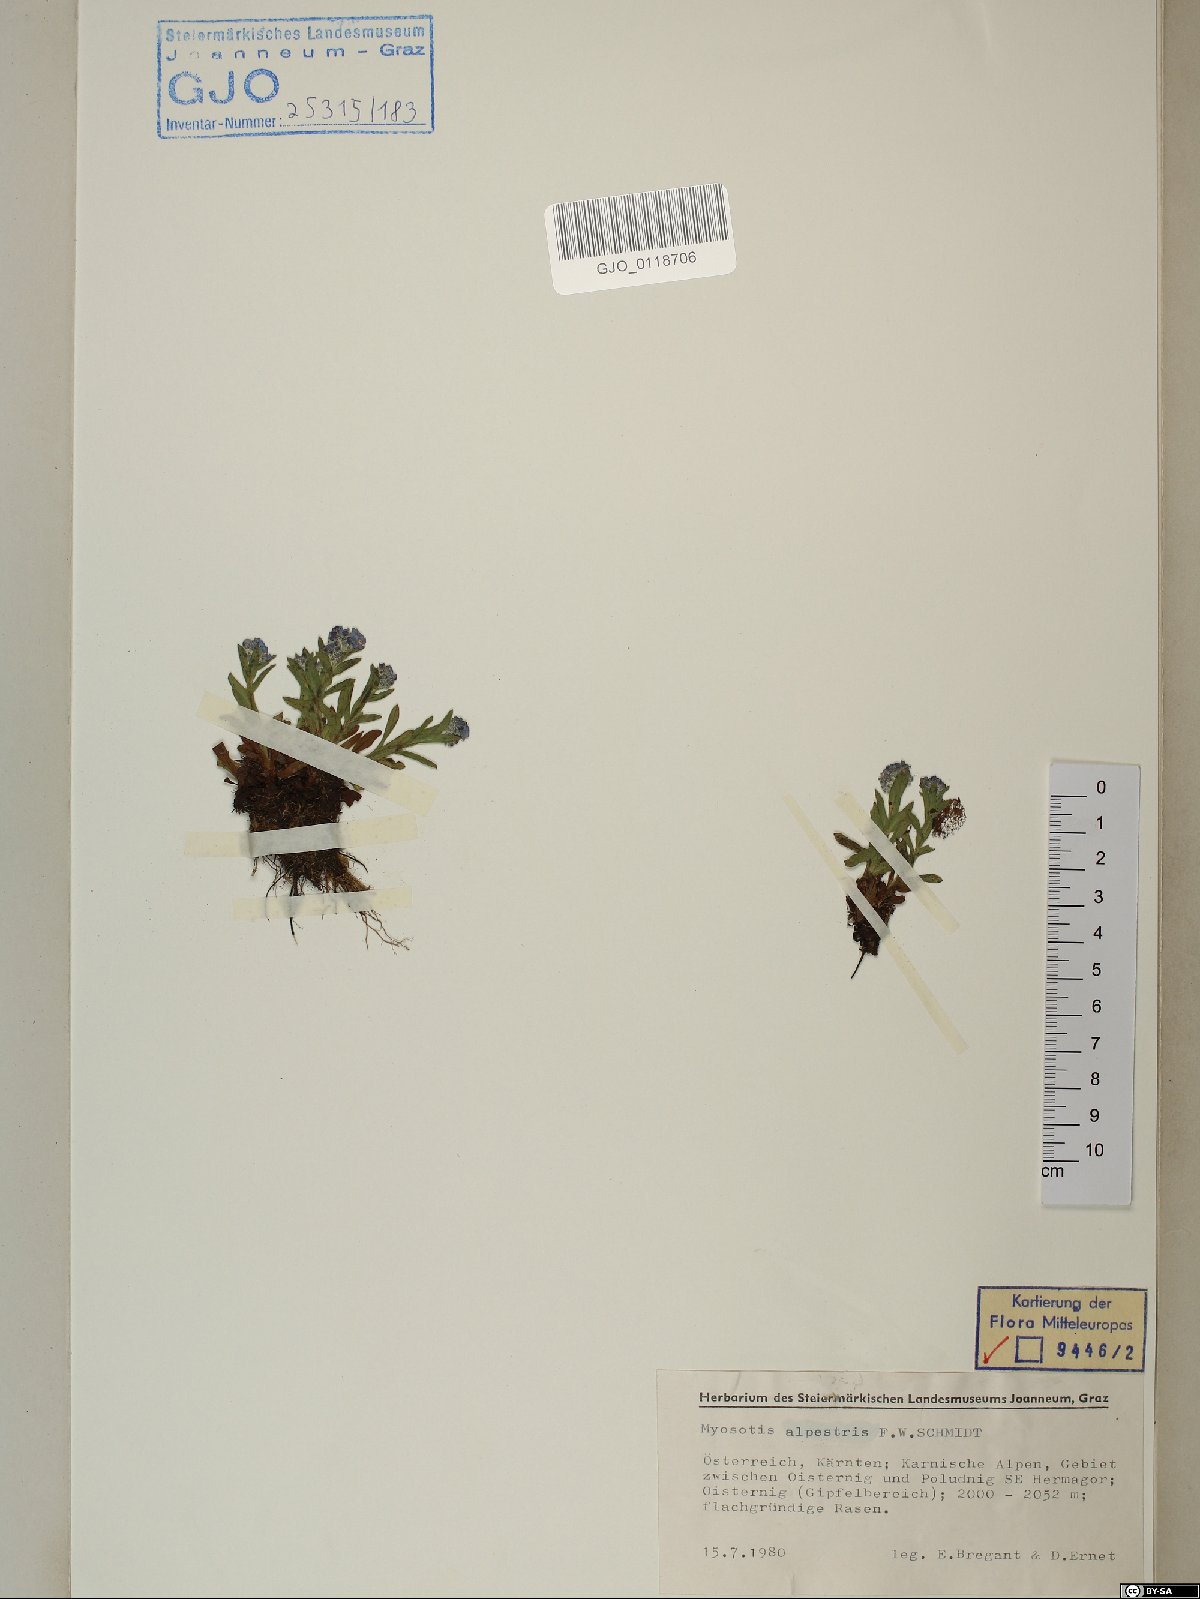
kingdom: Plantae
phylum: Tracheophyta
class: Magnoliopsida
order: Boraginales
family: Boraginaceae
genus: Myosotis
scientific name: Myosotis alpestris
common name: Alpine forget-me-not
